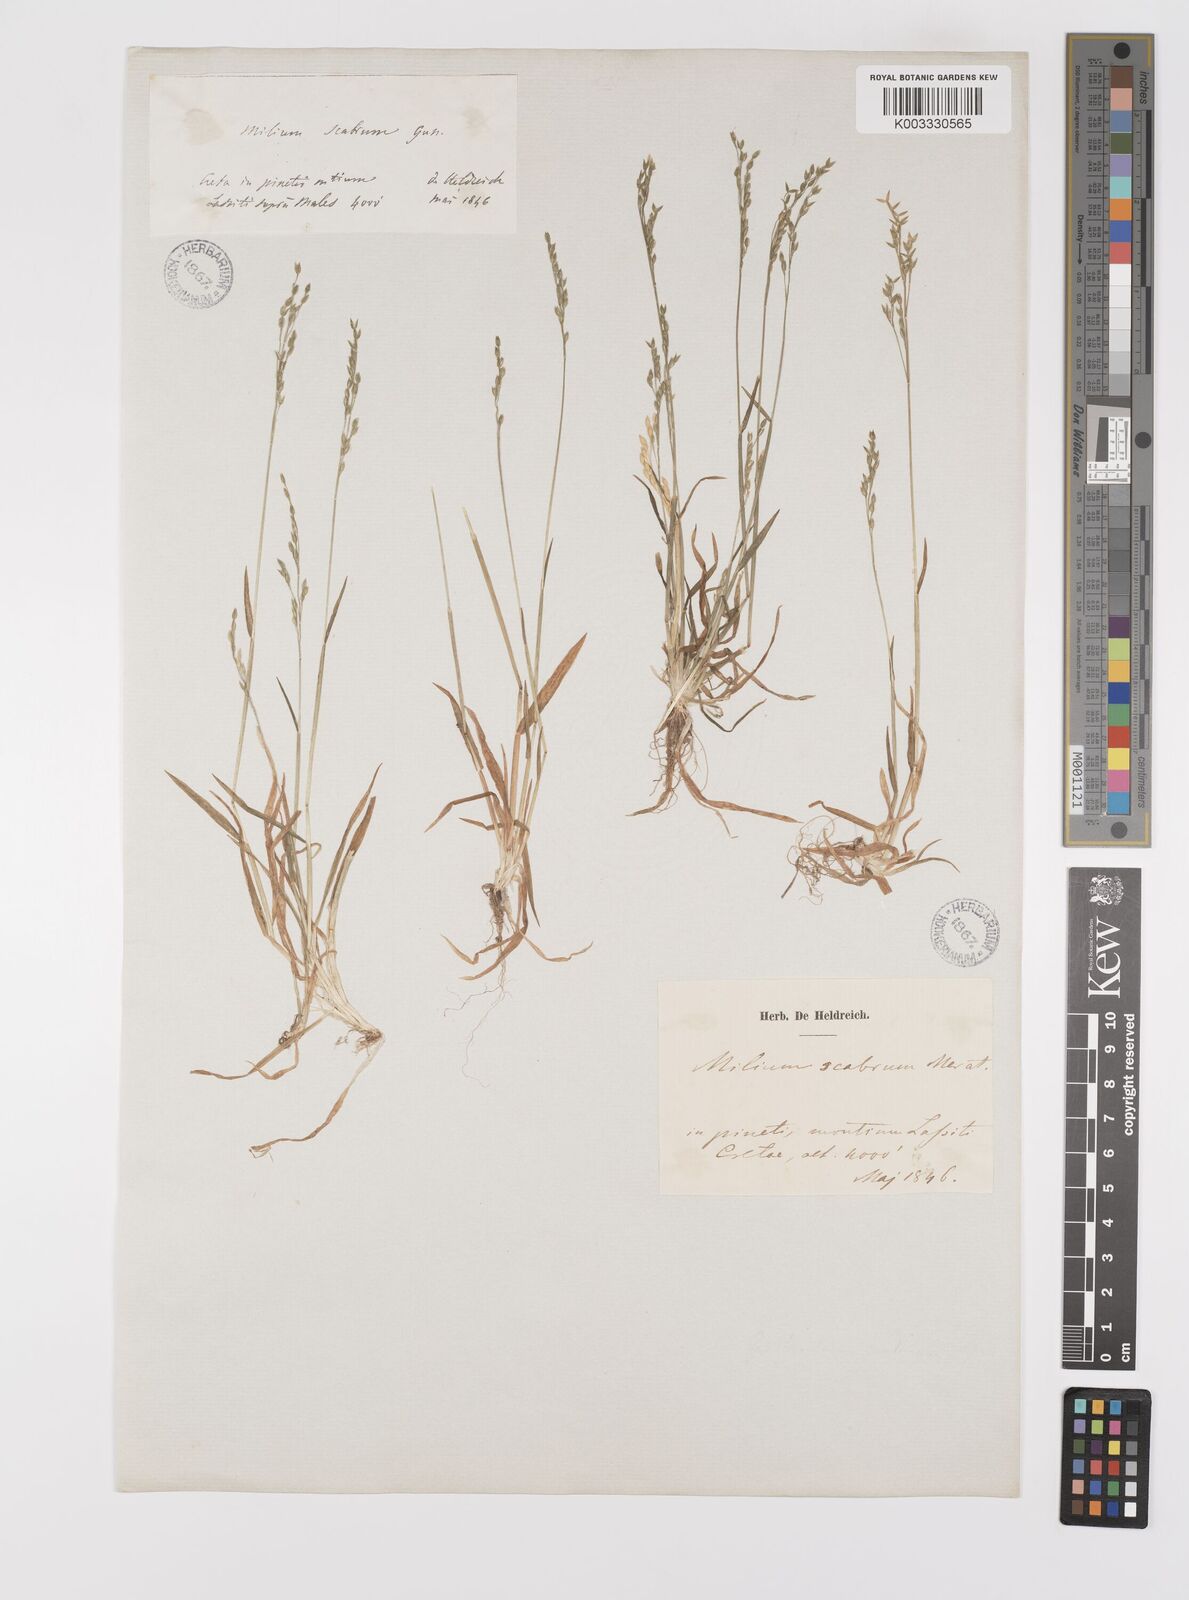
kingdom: Plantae
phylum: Tracheophyta
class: Liliopsida
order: Poales
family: Poaceae
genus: Milium
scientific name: Milium vernale
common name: Early millet
